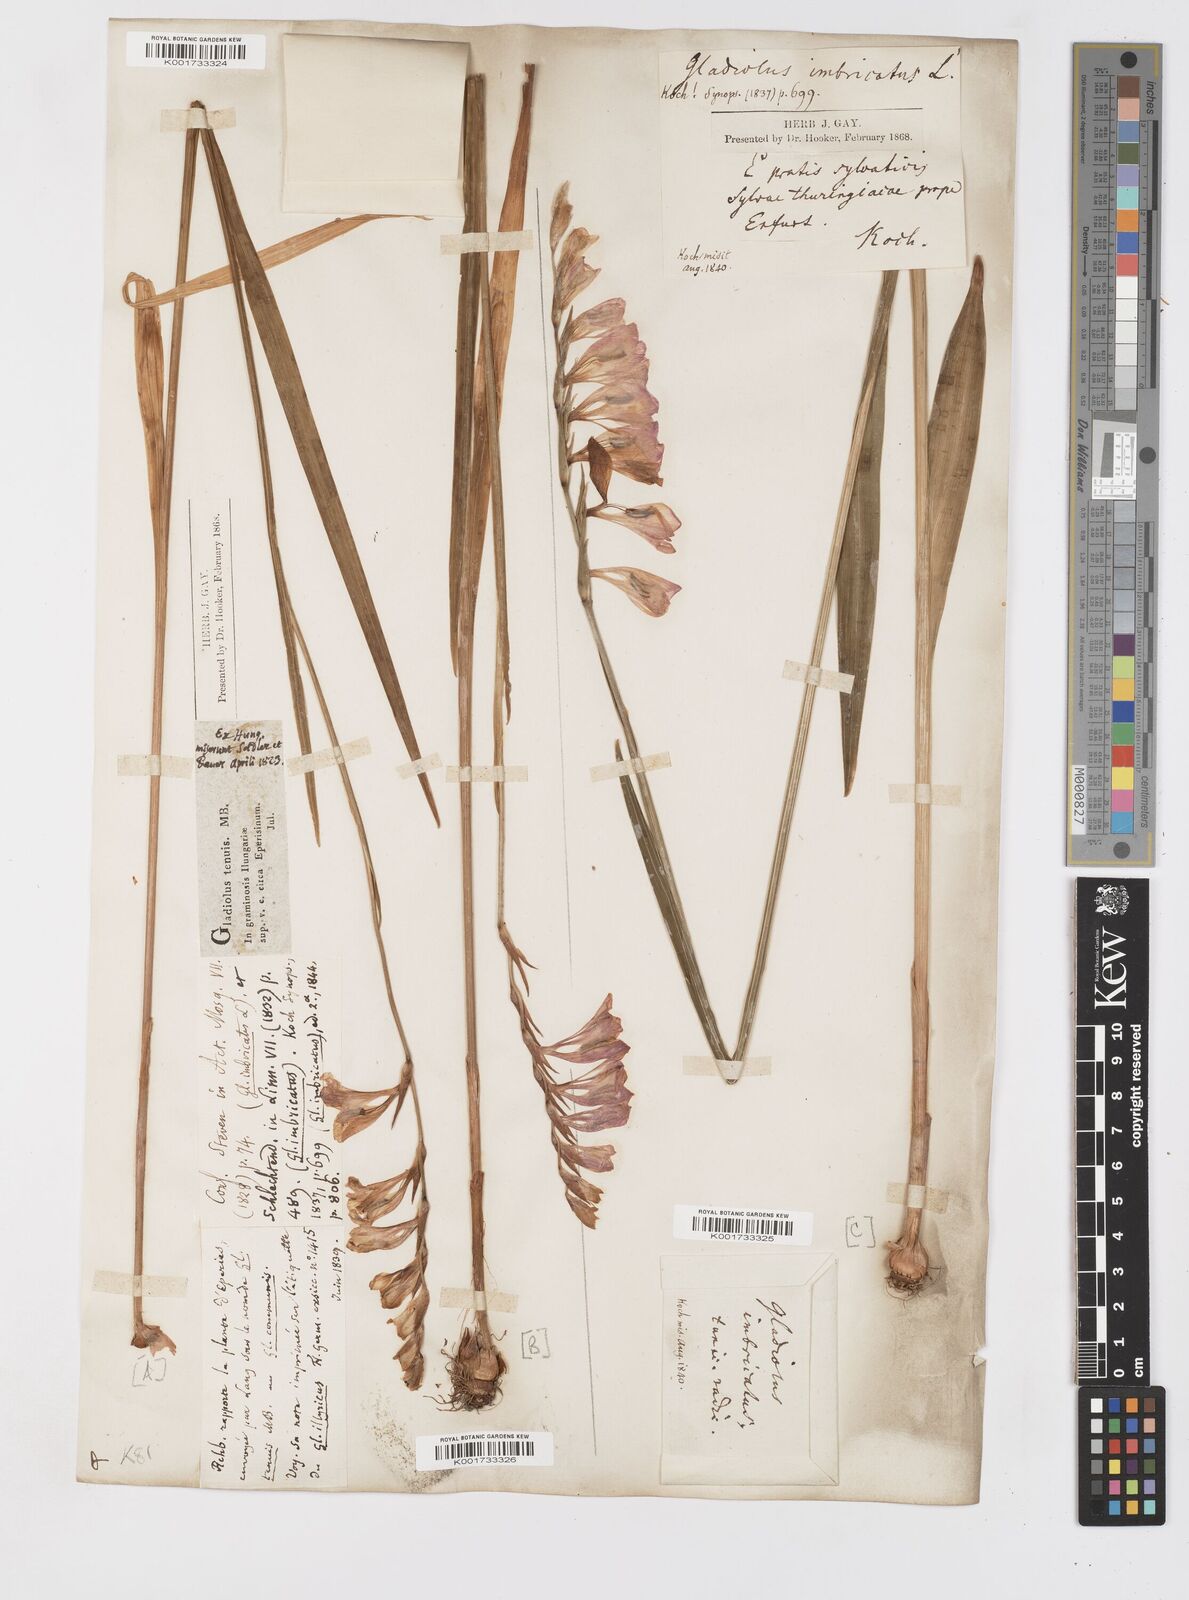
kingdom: Plantae
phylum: Tracheophyta
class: Liliopsida
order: Asparagales
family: Iridaceae
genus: Gladiolus
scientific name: Gladiolus imbricatus
